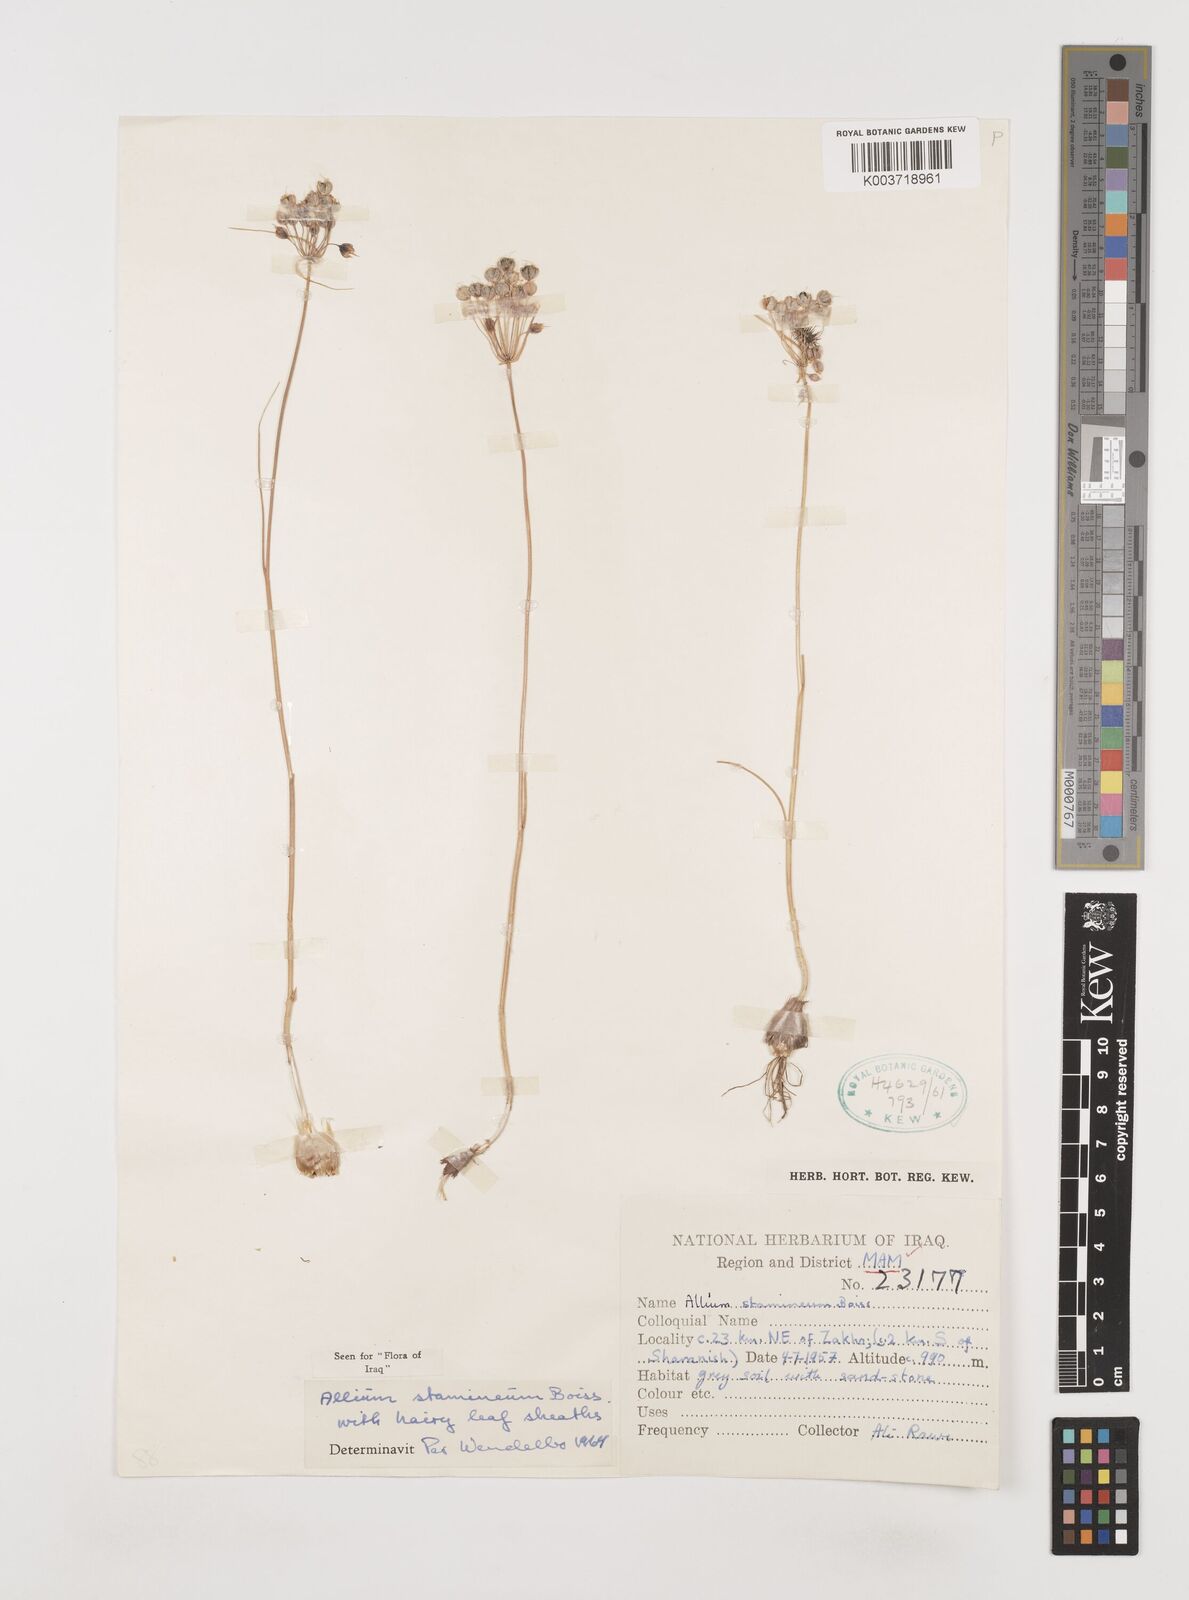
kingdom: Plantae
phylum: Tracheophyta
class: Liliopsida
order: Asparagales
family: Amaryllidaceae
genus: Allium
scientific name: Allium stamineum
